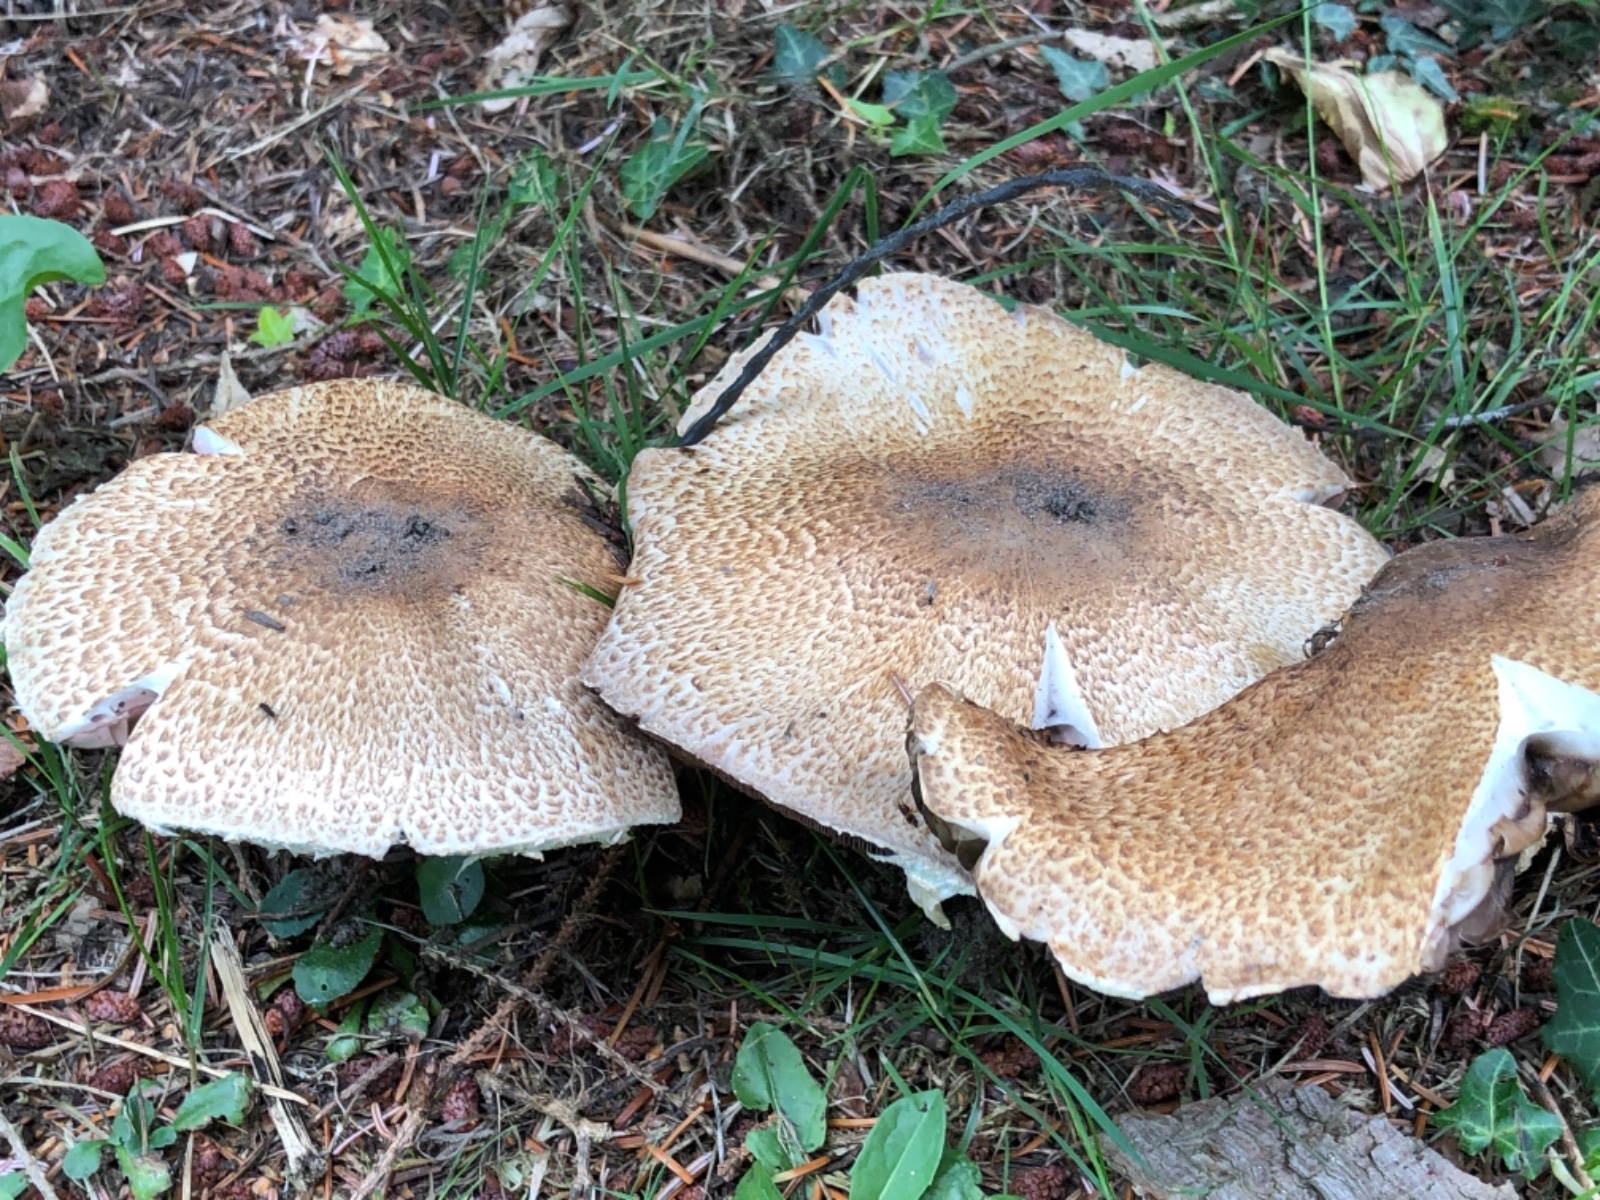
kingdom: Fungi
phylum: Basidiomycota
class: Agaricomycetes
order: Agaricales
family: Agaricaceae
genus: Agaricus
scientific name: Agaricus augustus
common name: prægtig champignon
